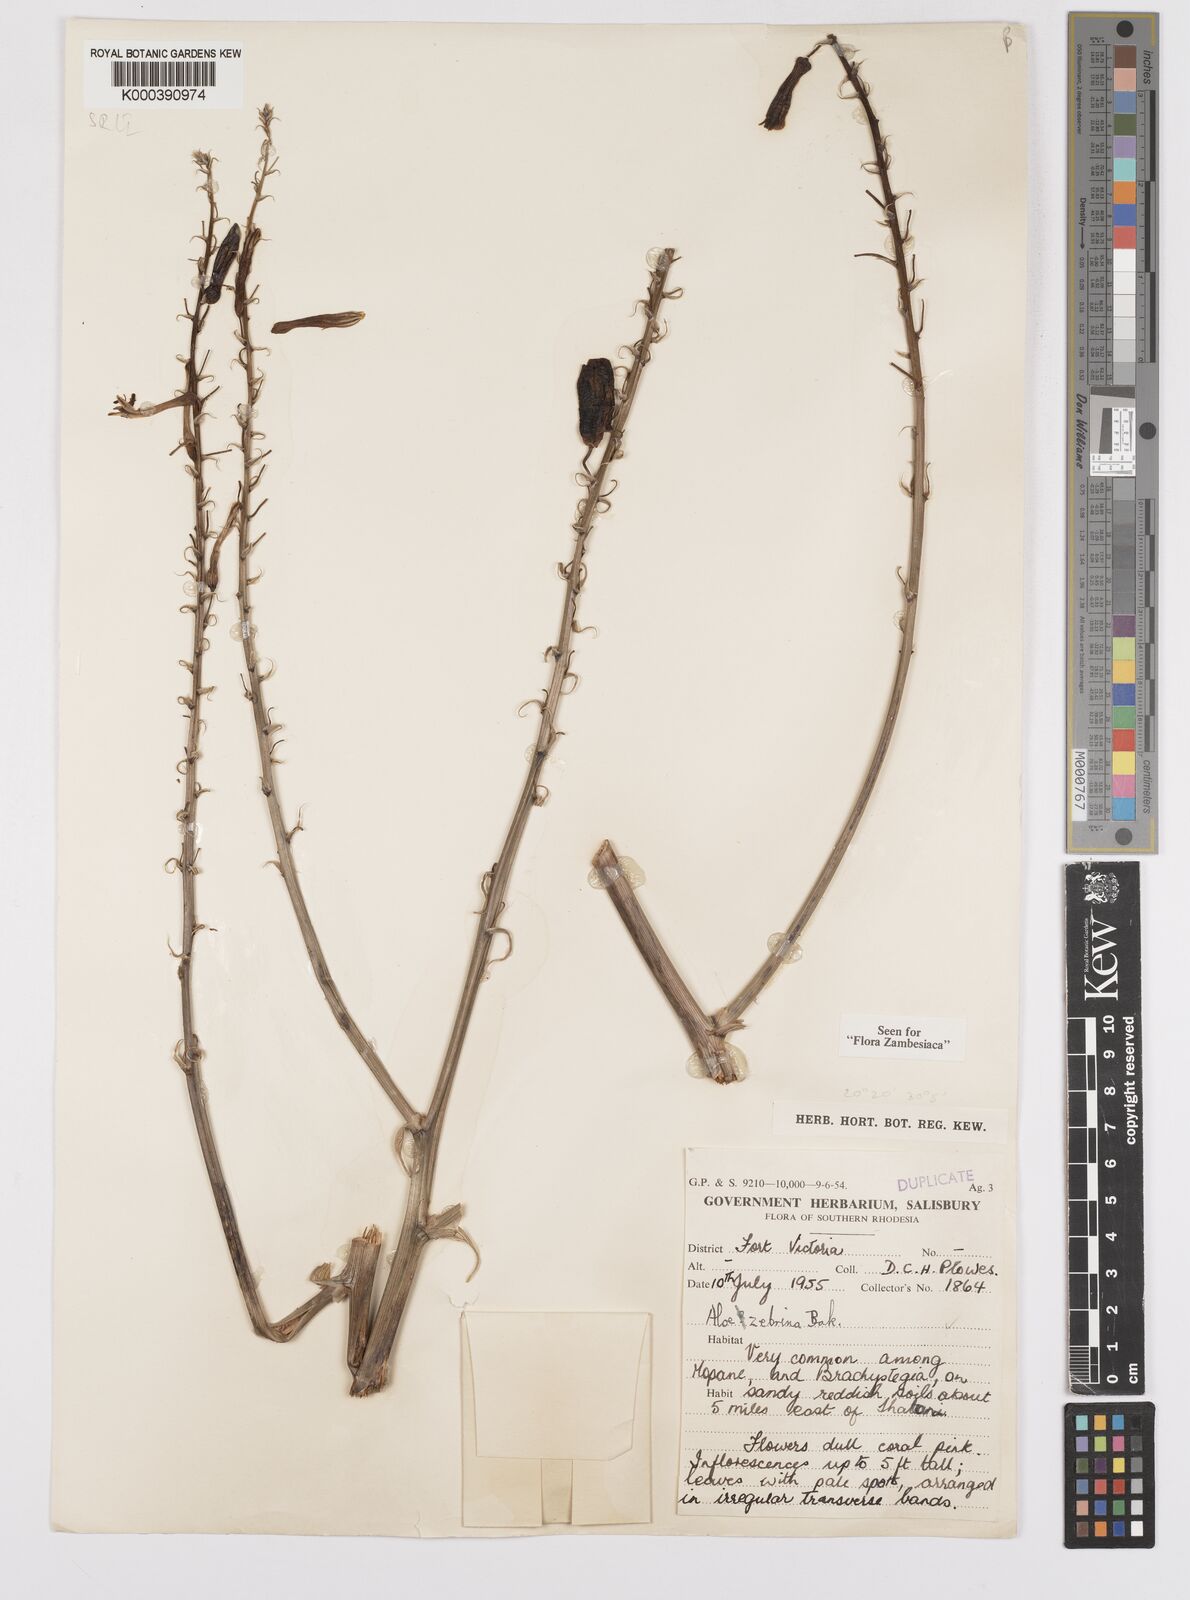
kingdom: Plantae
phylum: Tracheophyta
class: Liliopsida
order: Asparagales
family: Asphodelaceae
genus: Aloe
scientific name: Aloe zebrina
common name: Zebra-leaf aloe
